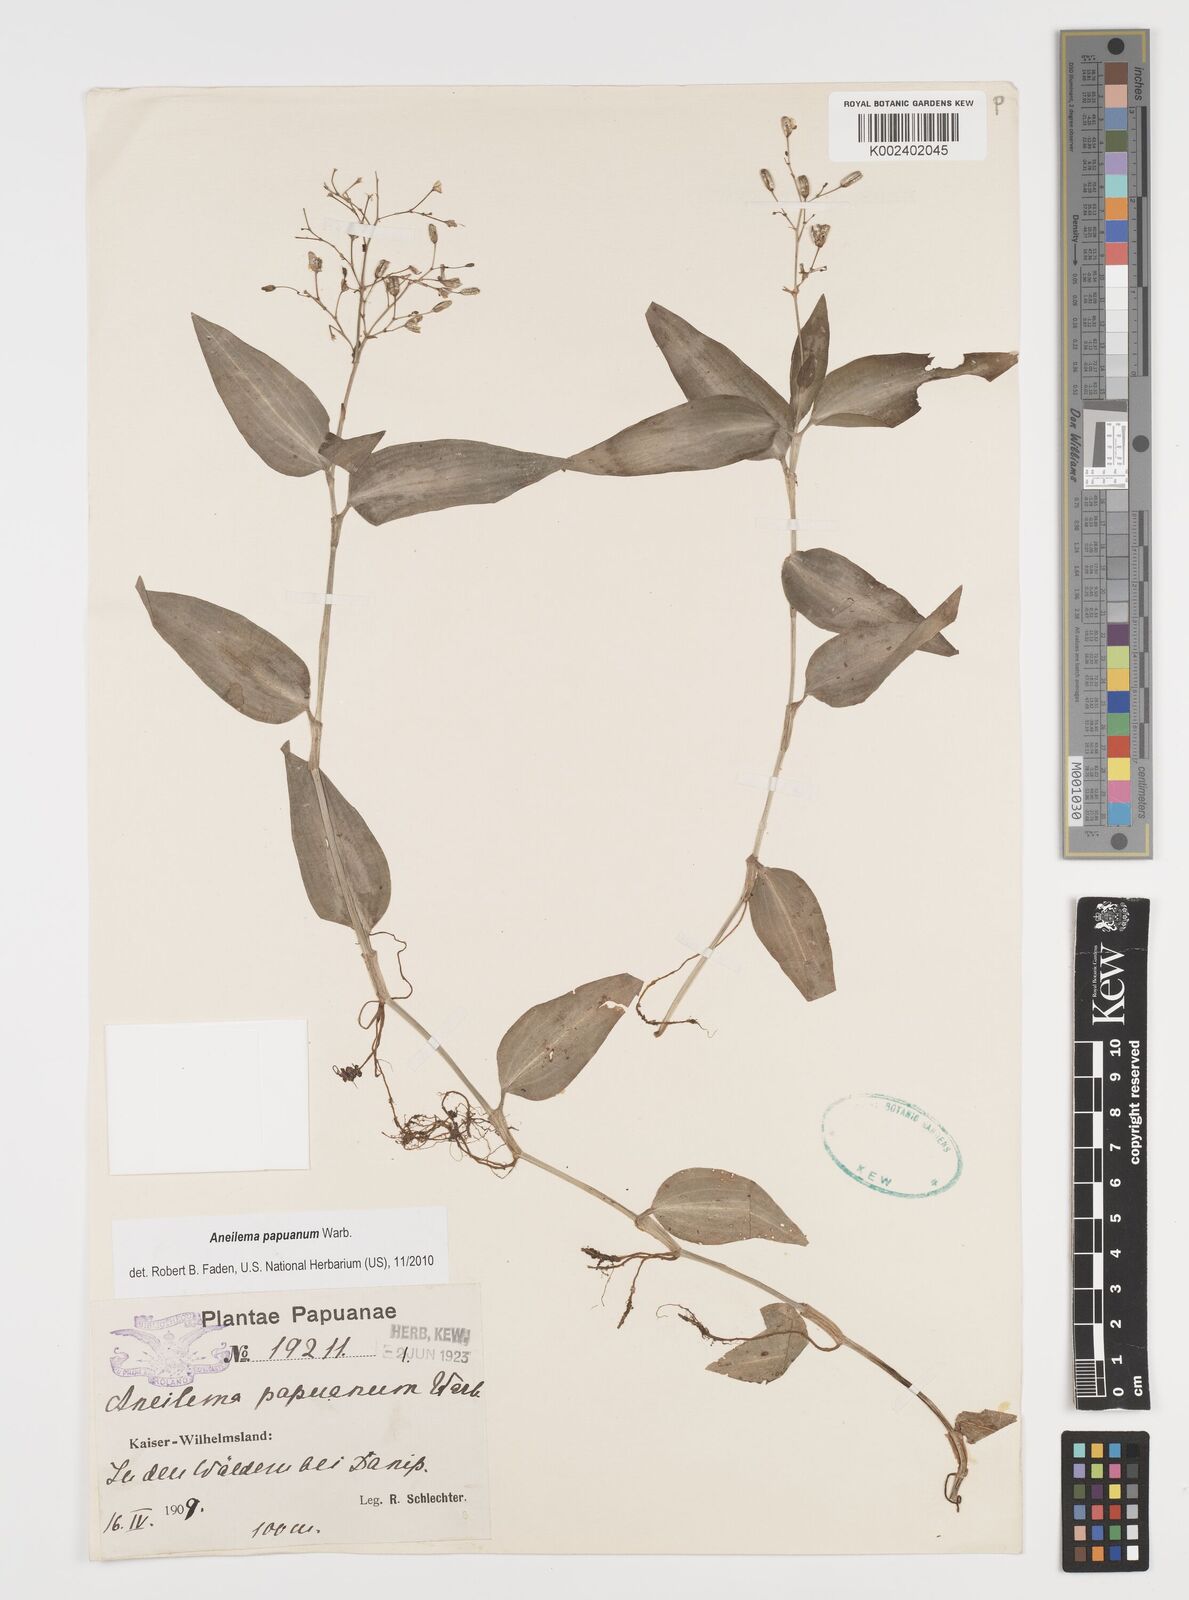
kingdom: Plantae
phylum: Tracheophyta
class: Liliopsida
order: Commelinales
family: Commelinaceae
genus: Aneilema
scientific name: Aneilema acuminatum
